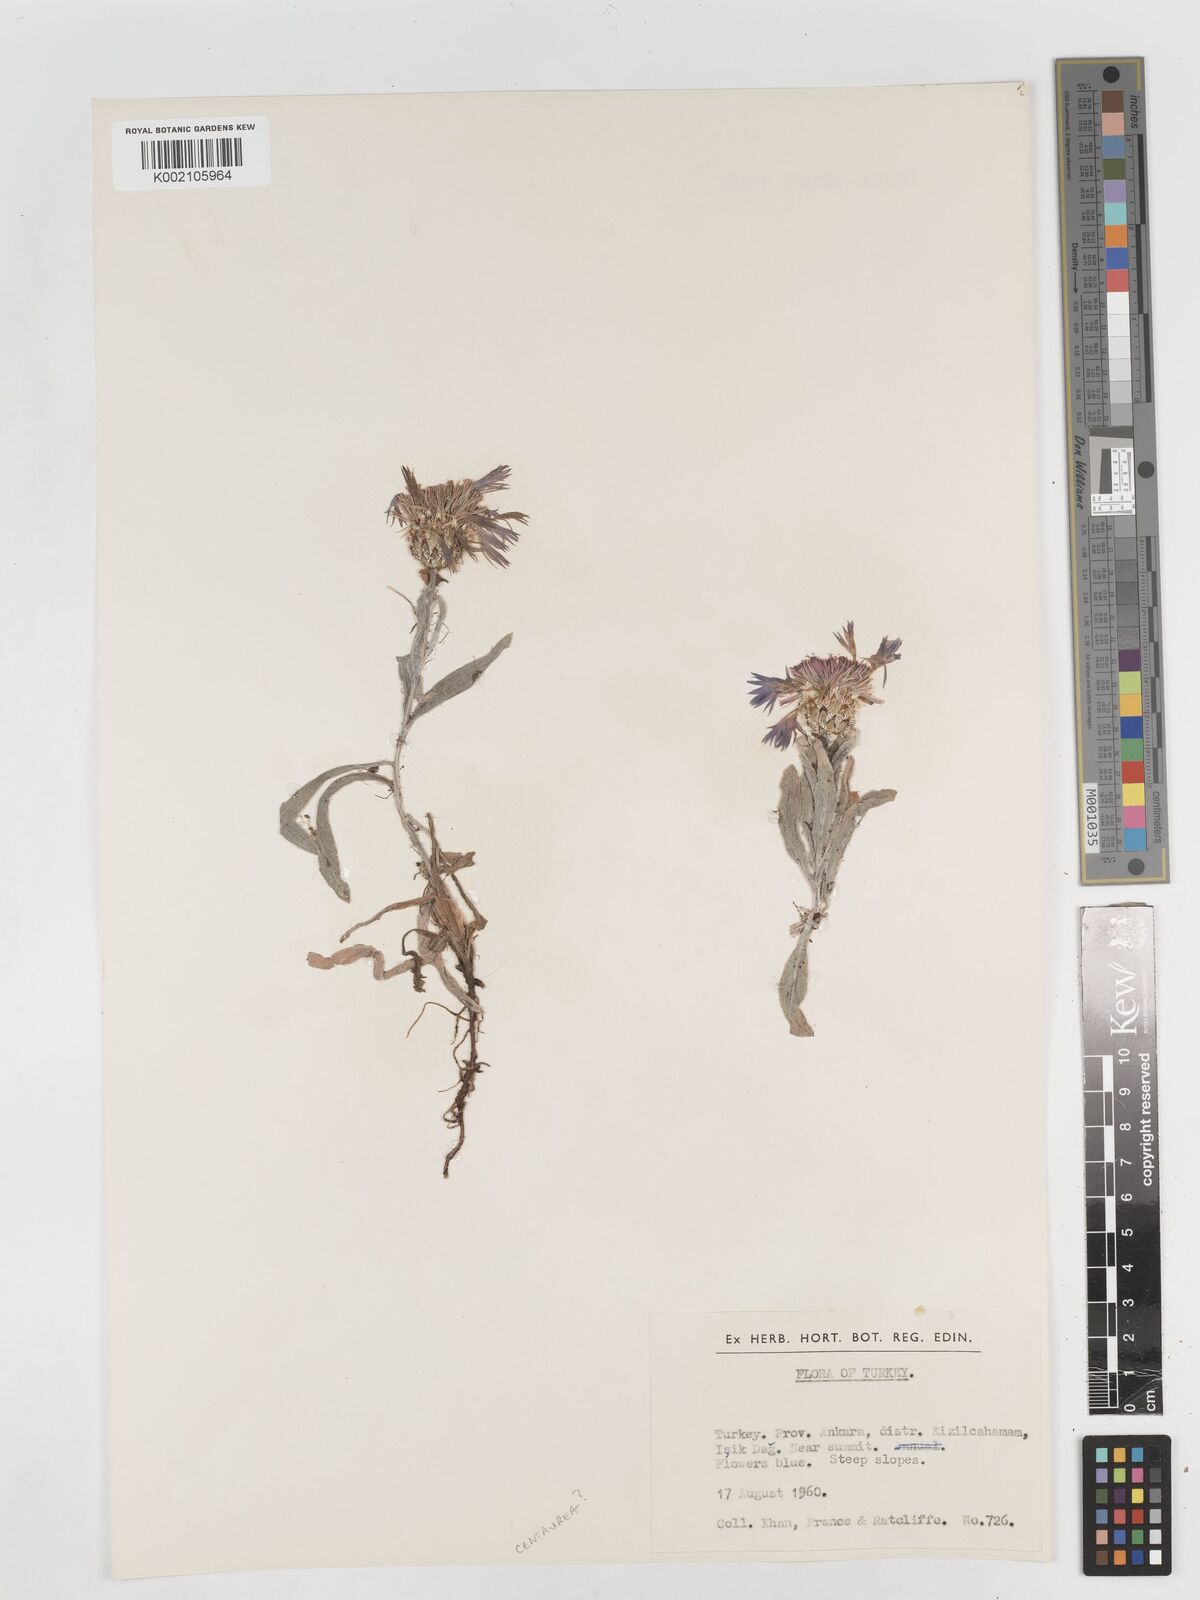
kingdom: Plantae
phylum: Tracheophyta
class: Magnoliopsida
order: Asterales
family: Asteraceae
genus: Centaurea
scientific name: Centaurea
